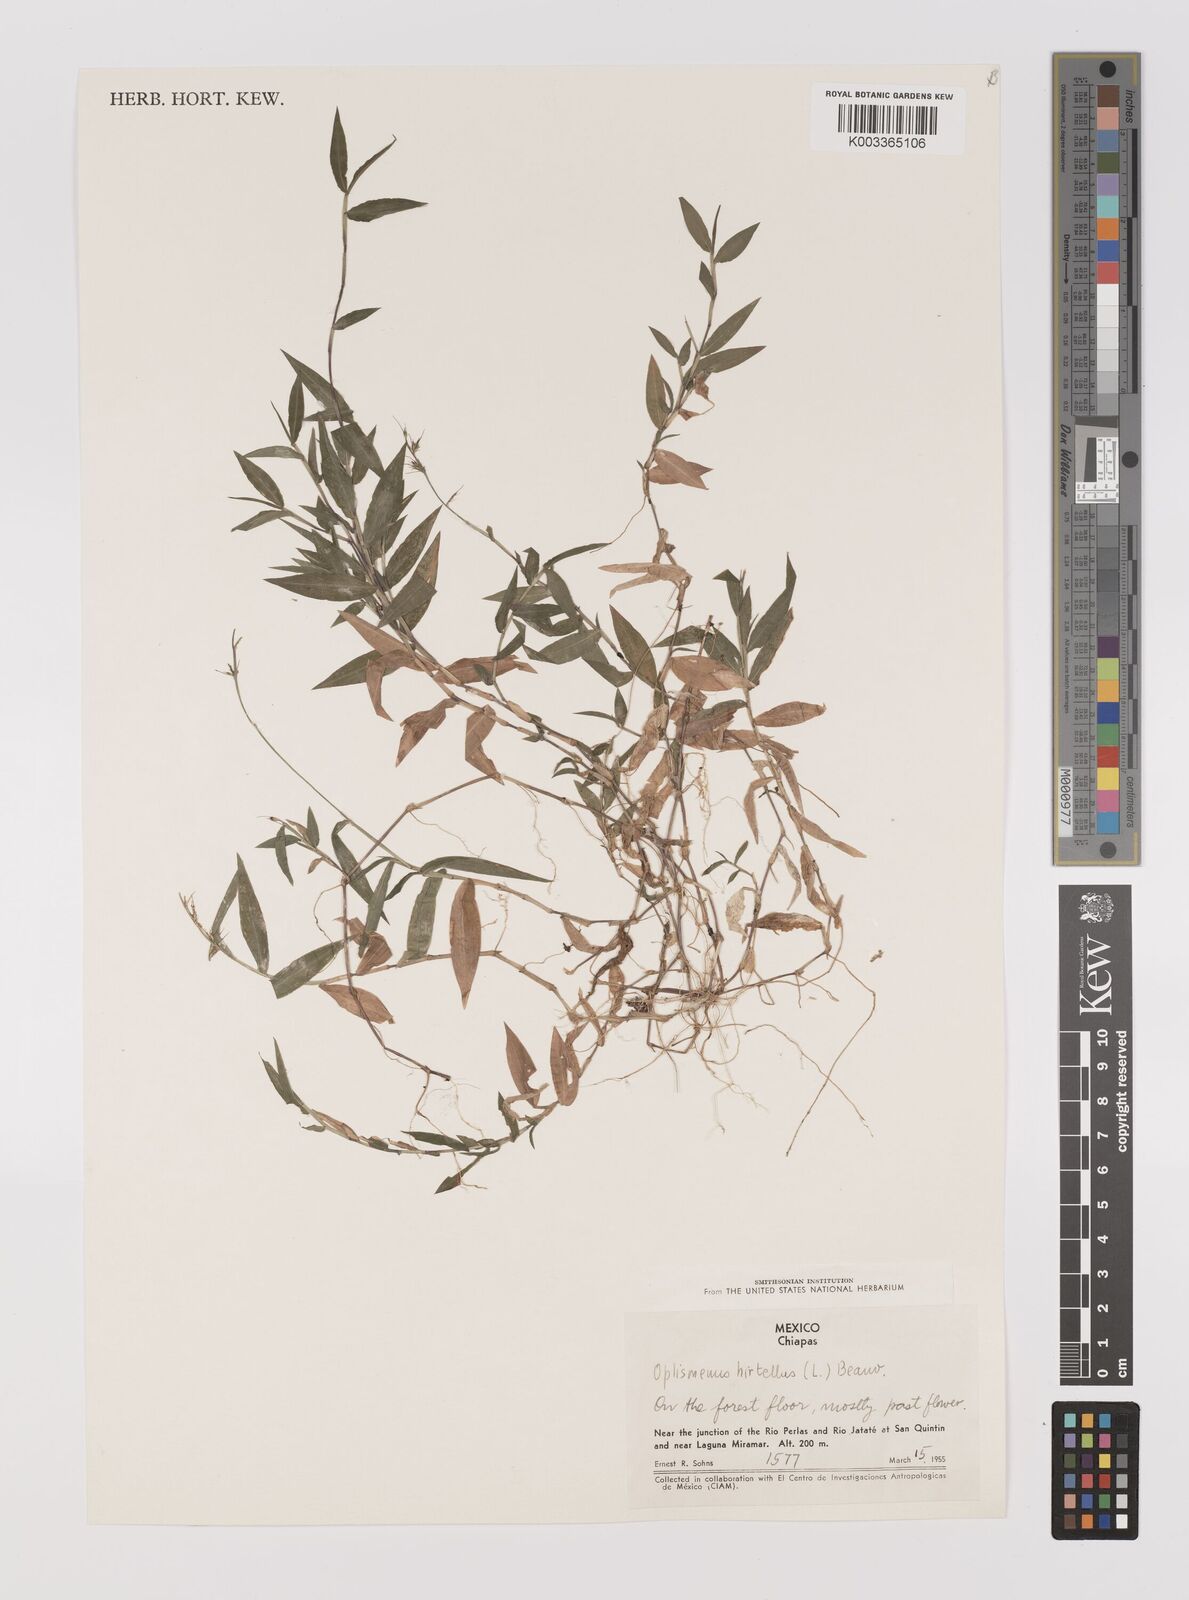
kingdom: Plantae
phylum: Tracheophyta
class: Liliopsida
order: Poales
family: Poaceae
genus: Oplismenus
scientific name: Oplismenus hirtellus
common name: Basketgrass
